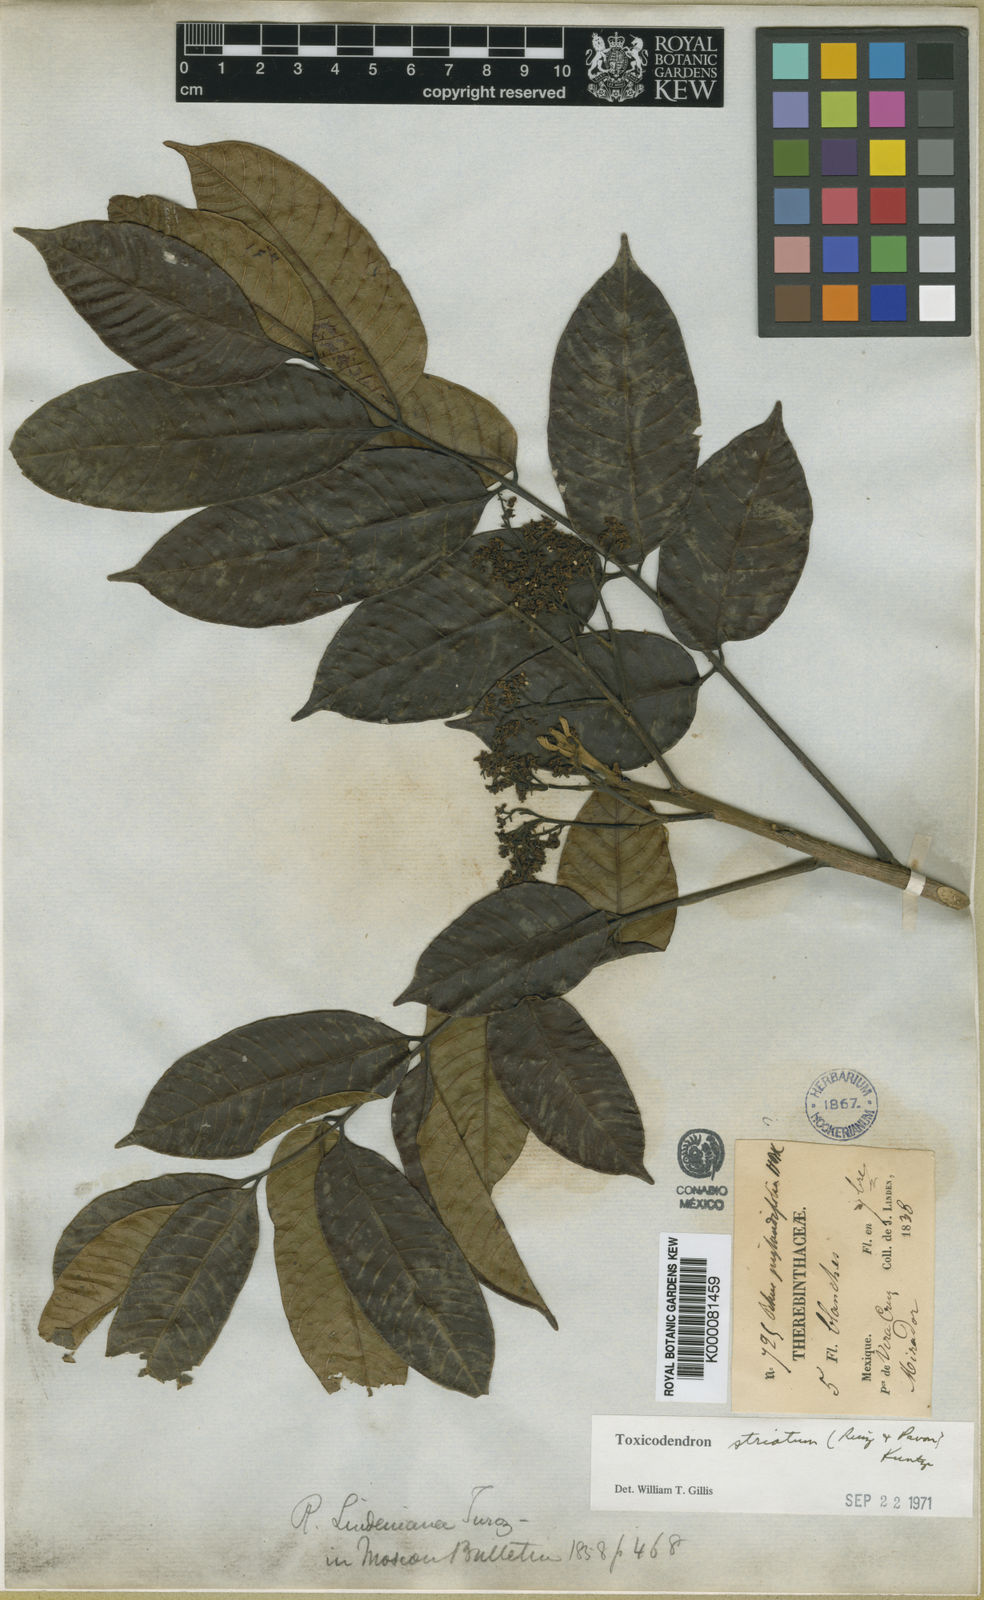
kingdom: Plantae
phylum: Tracheophyta
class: Magnoliopsida
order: Sapindales
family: Anacardiaceae
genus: Toxicodendron
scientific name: Toxicodendron striatum
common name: Sumac
